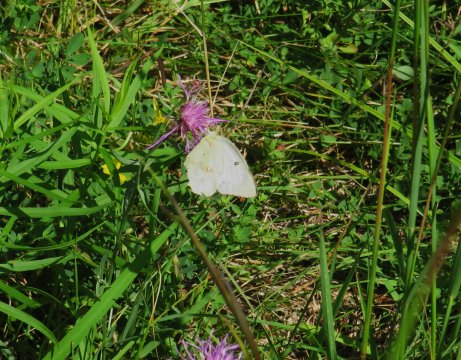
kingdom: Animalia
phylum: Arthropoda
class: Insecta
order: Lepidoptera
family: Pieridae
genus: Colias
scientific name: Colias philodice
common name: Clouded Sulphur
